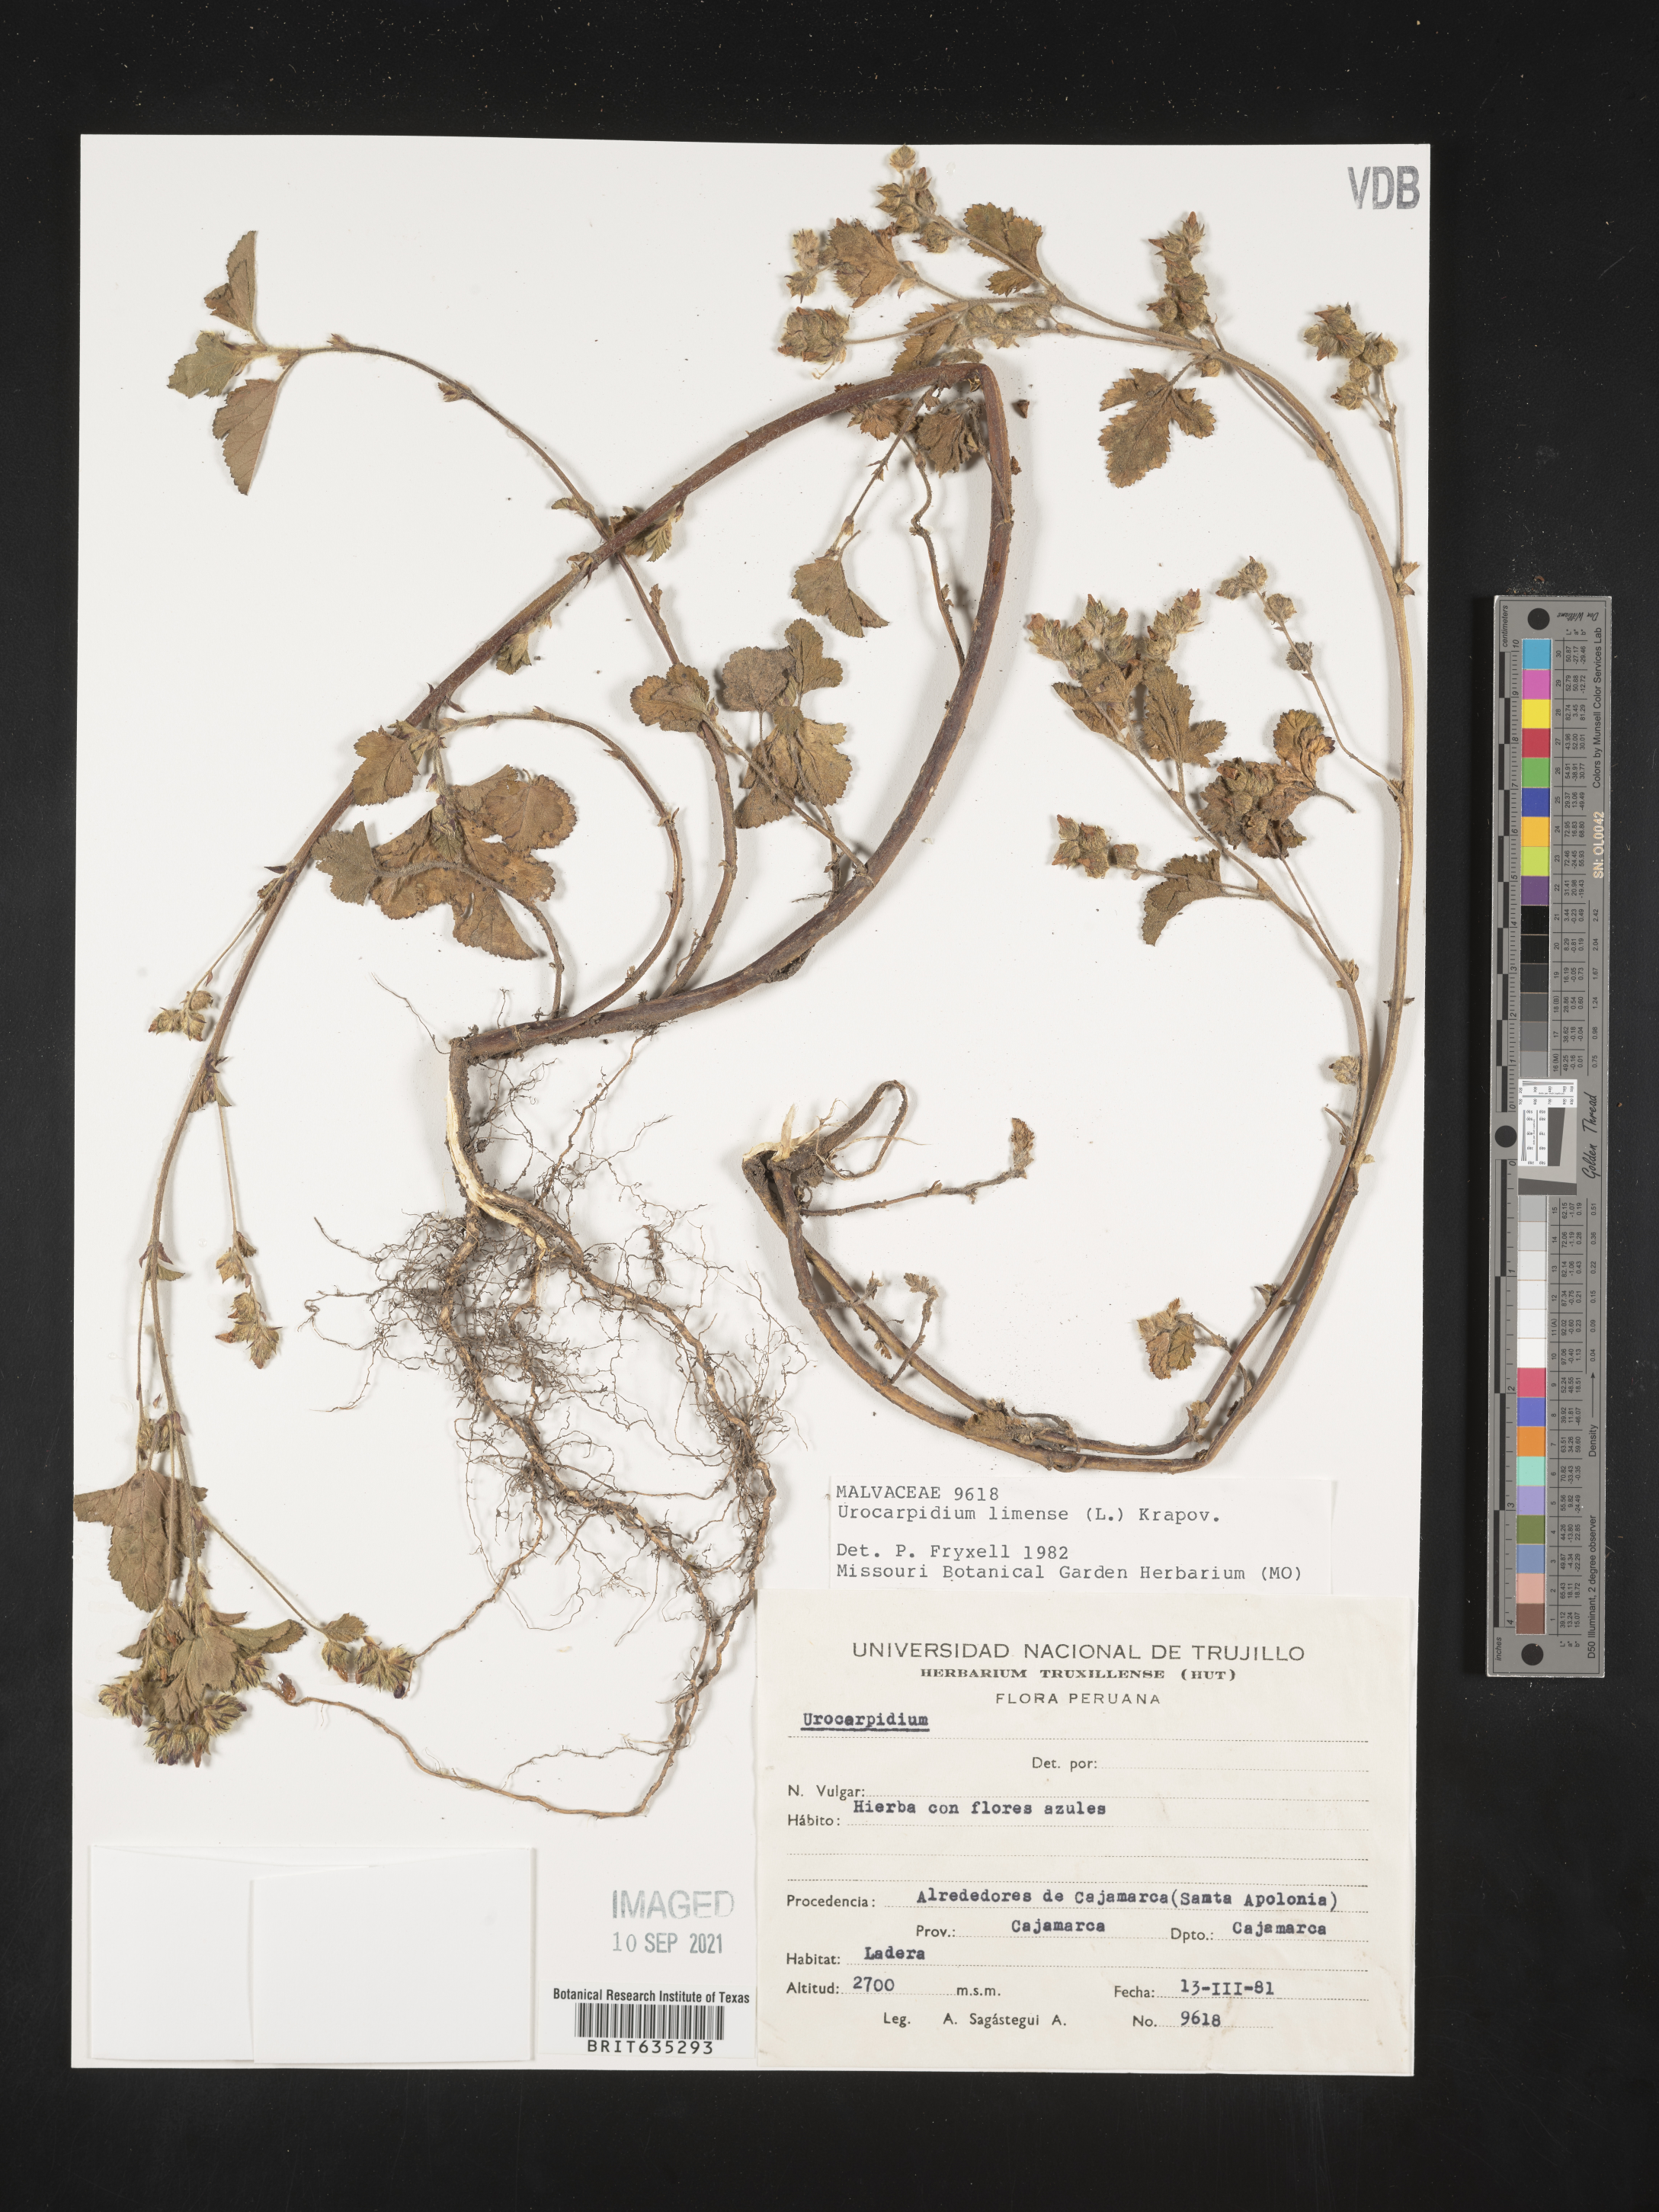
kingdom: Plantae
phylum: Tracheophyta
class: Magnoliopsida
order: Malvales
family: Malvaceae
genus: Urocarpidium
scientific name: Urocarpidium
